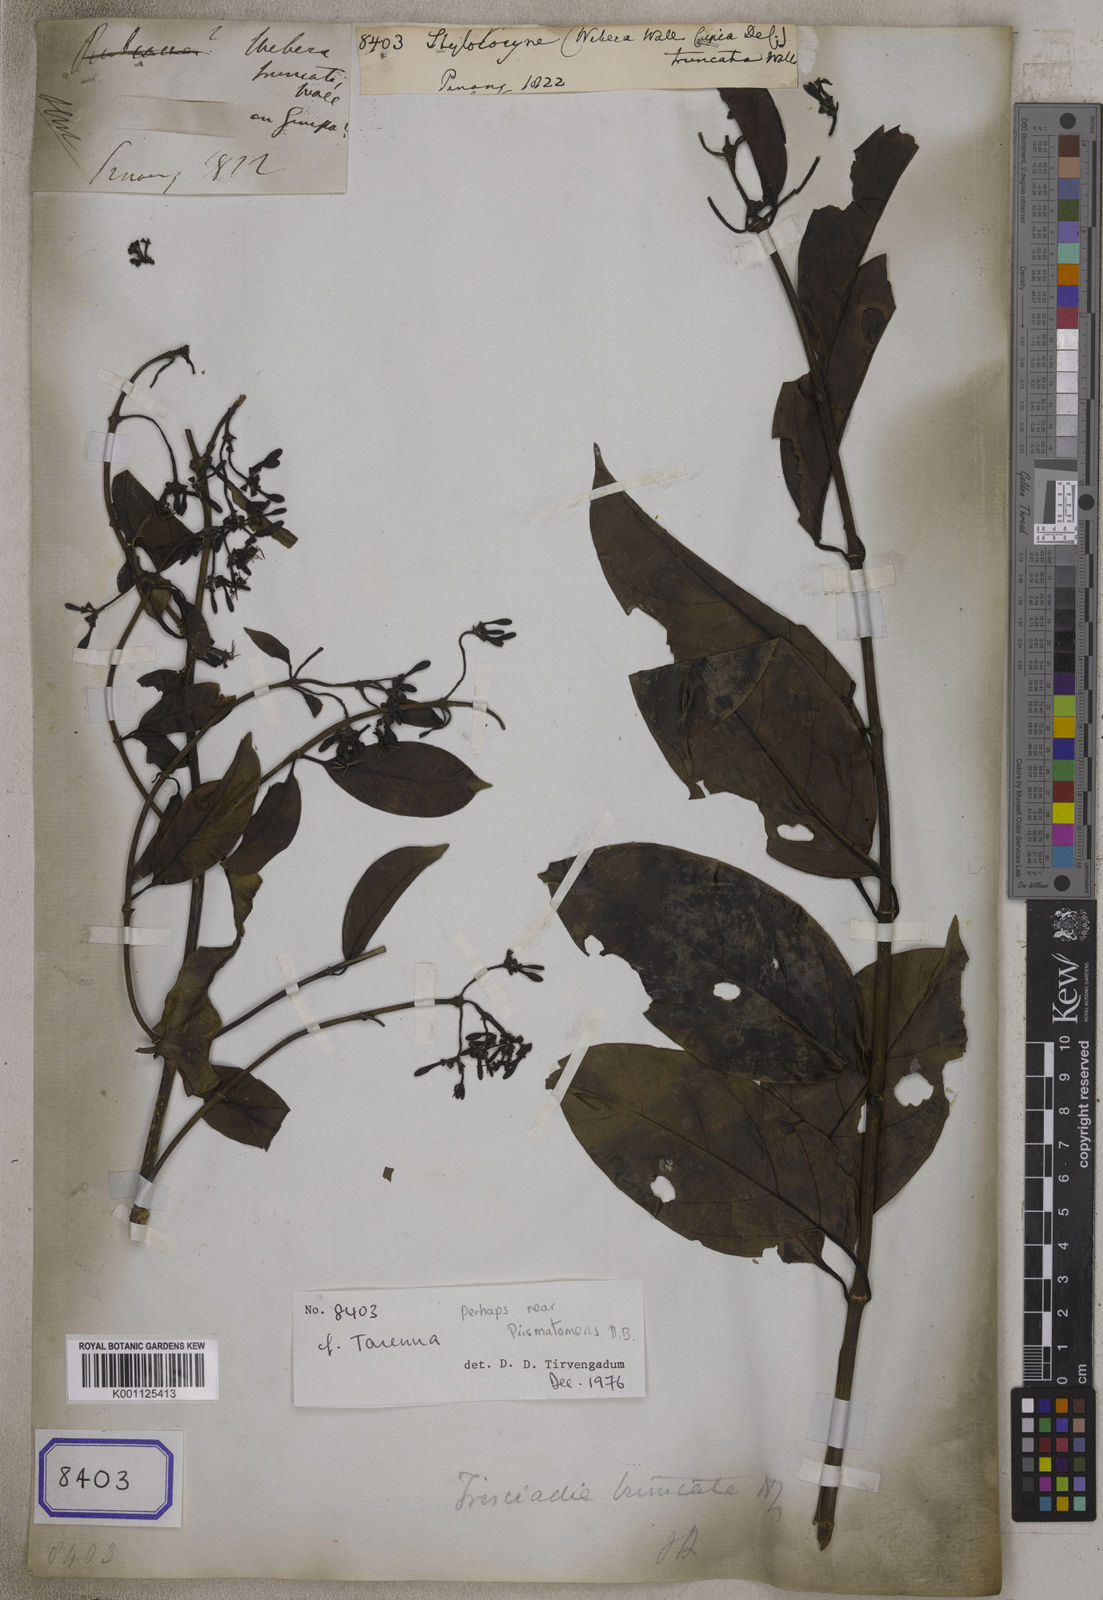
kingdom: Plantae
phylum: Tracheophyta
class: Magnoliopsida
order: Gentianales
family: Rubiaceae
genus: Aidia
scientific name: Aidia
